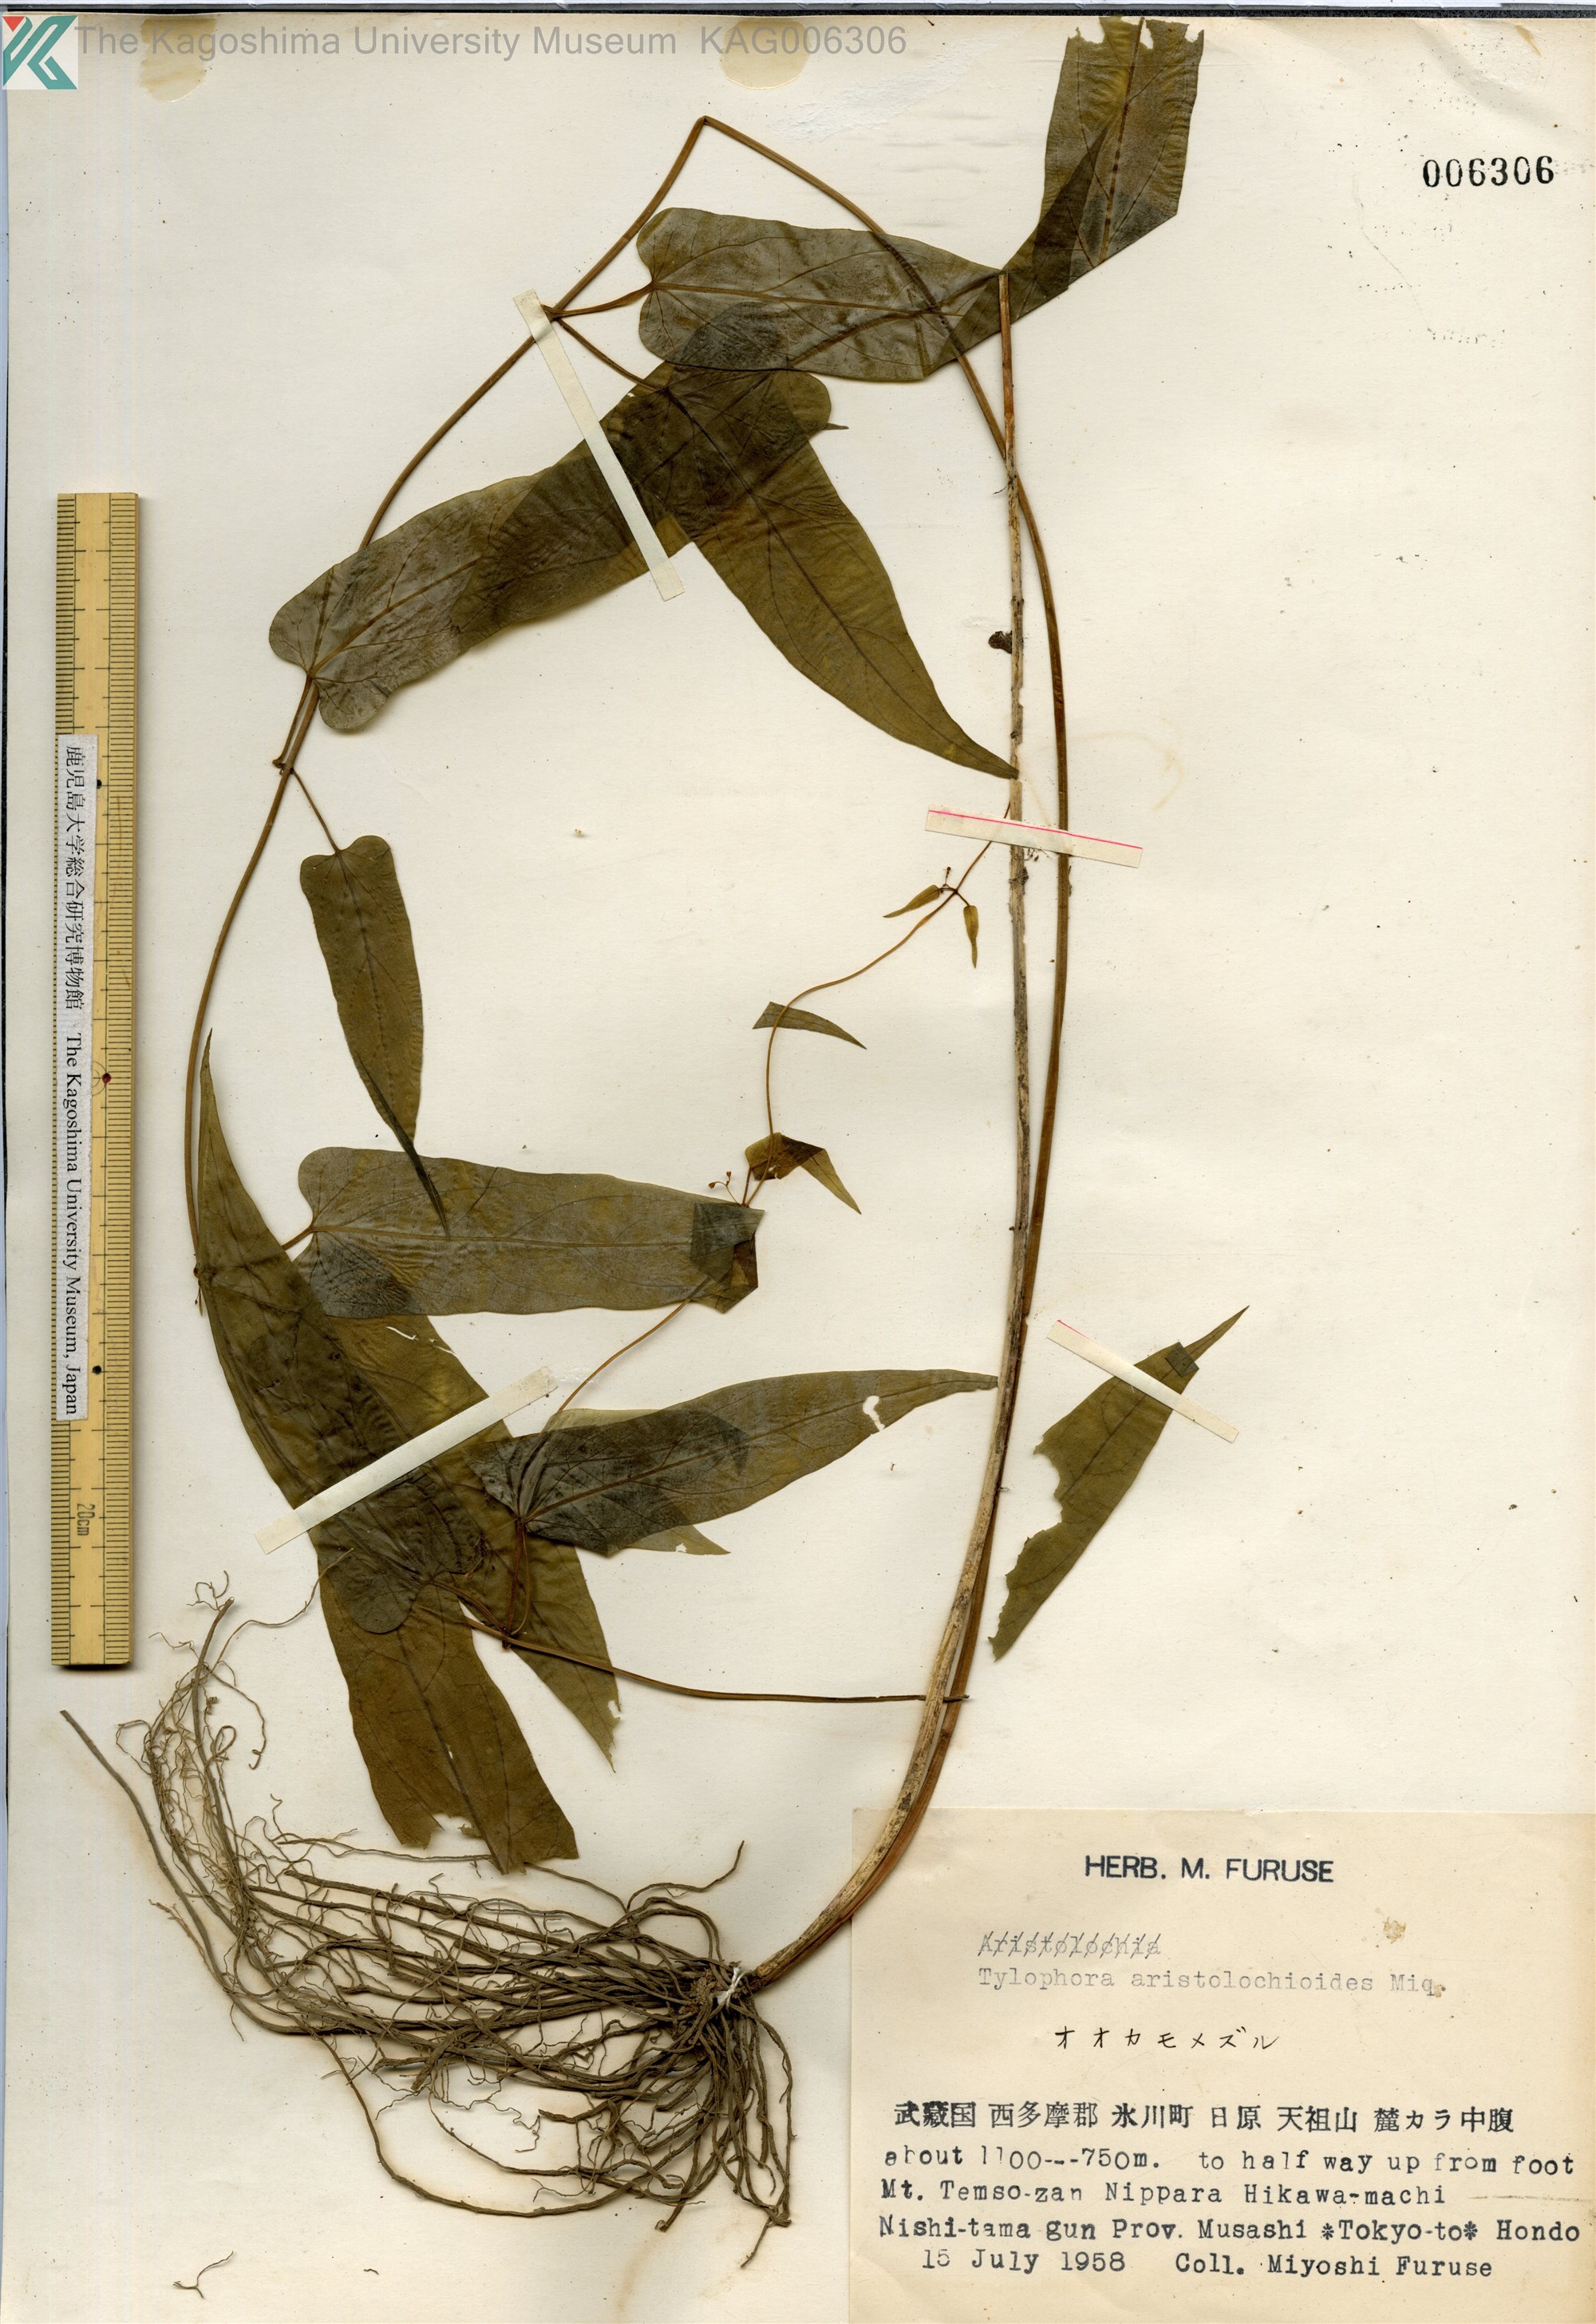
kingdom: Plantae
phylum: Tracheophyta
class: Magnoliopsida
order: Gentianales
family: Apocynaceae
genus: Vincetoxicum
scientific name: Vincetoxicum aristolochioides
